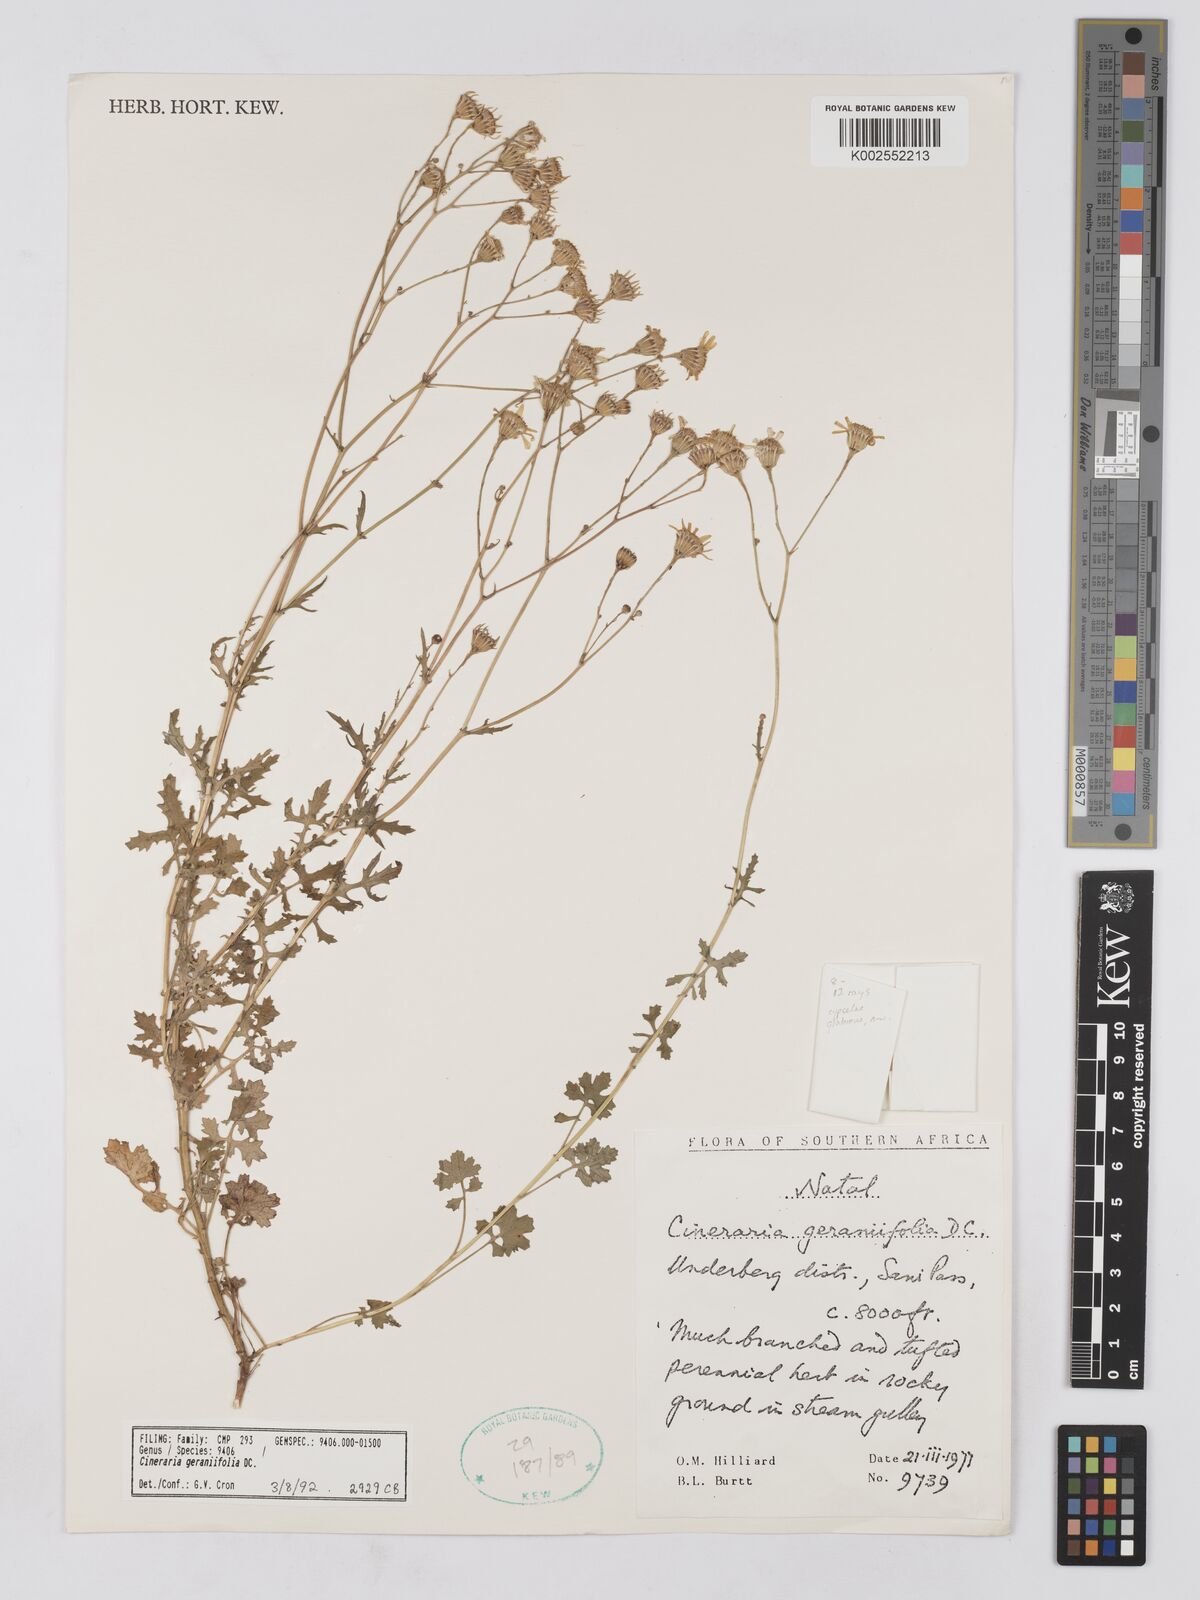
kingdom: Plantae
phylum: Tracheophyta
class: Magnoliopsida
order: Asterales
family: Asteraceae
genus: Cineraria
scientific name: Cineraria geraniifolia
